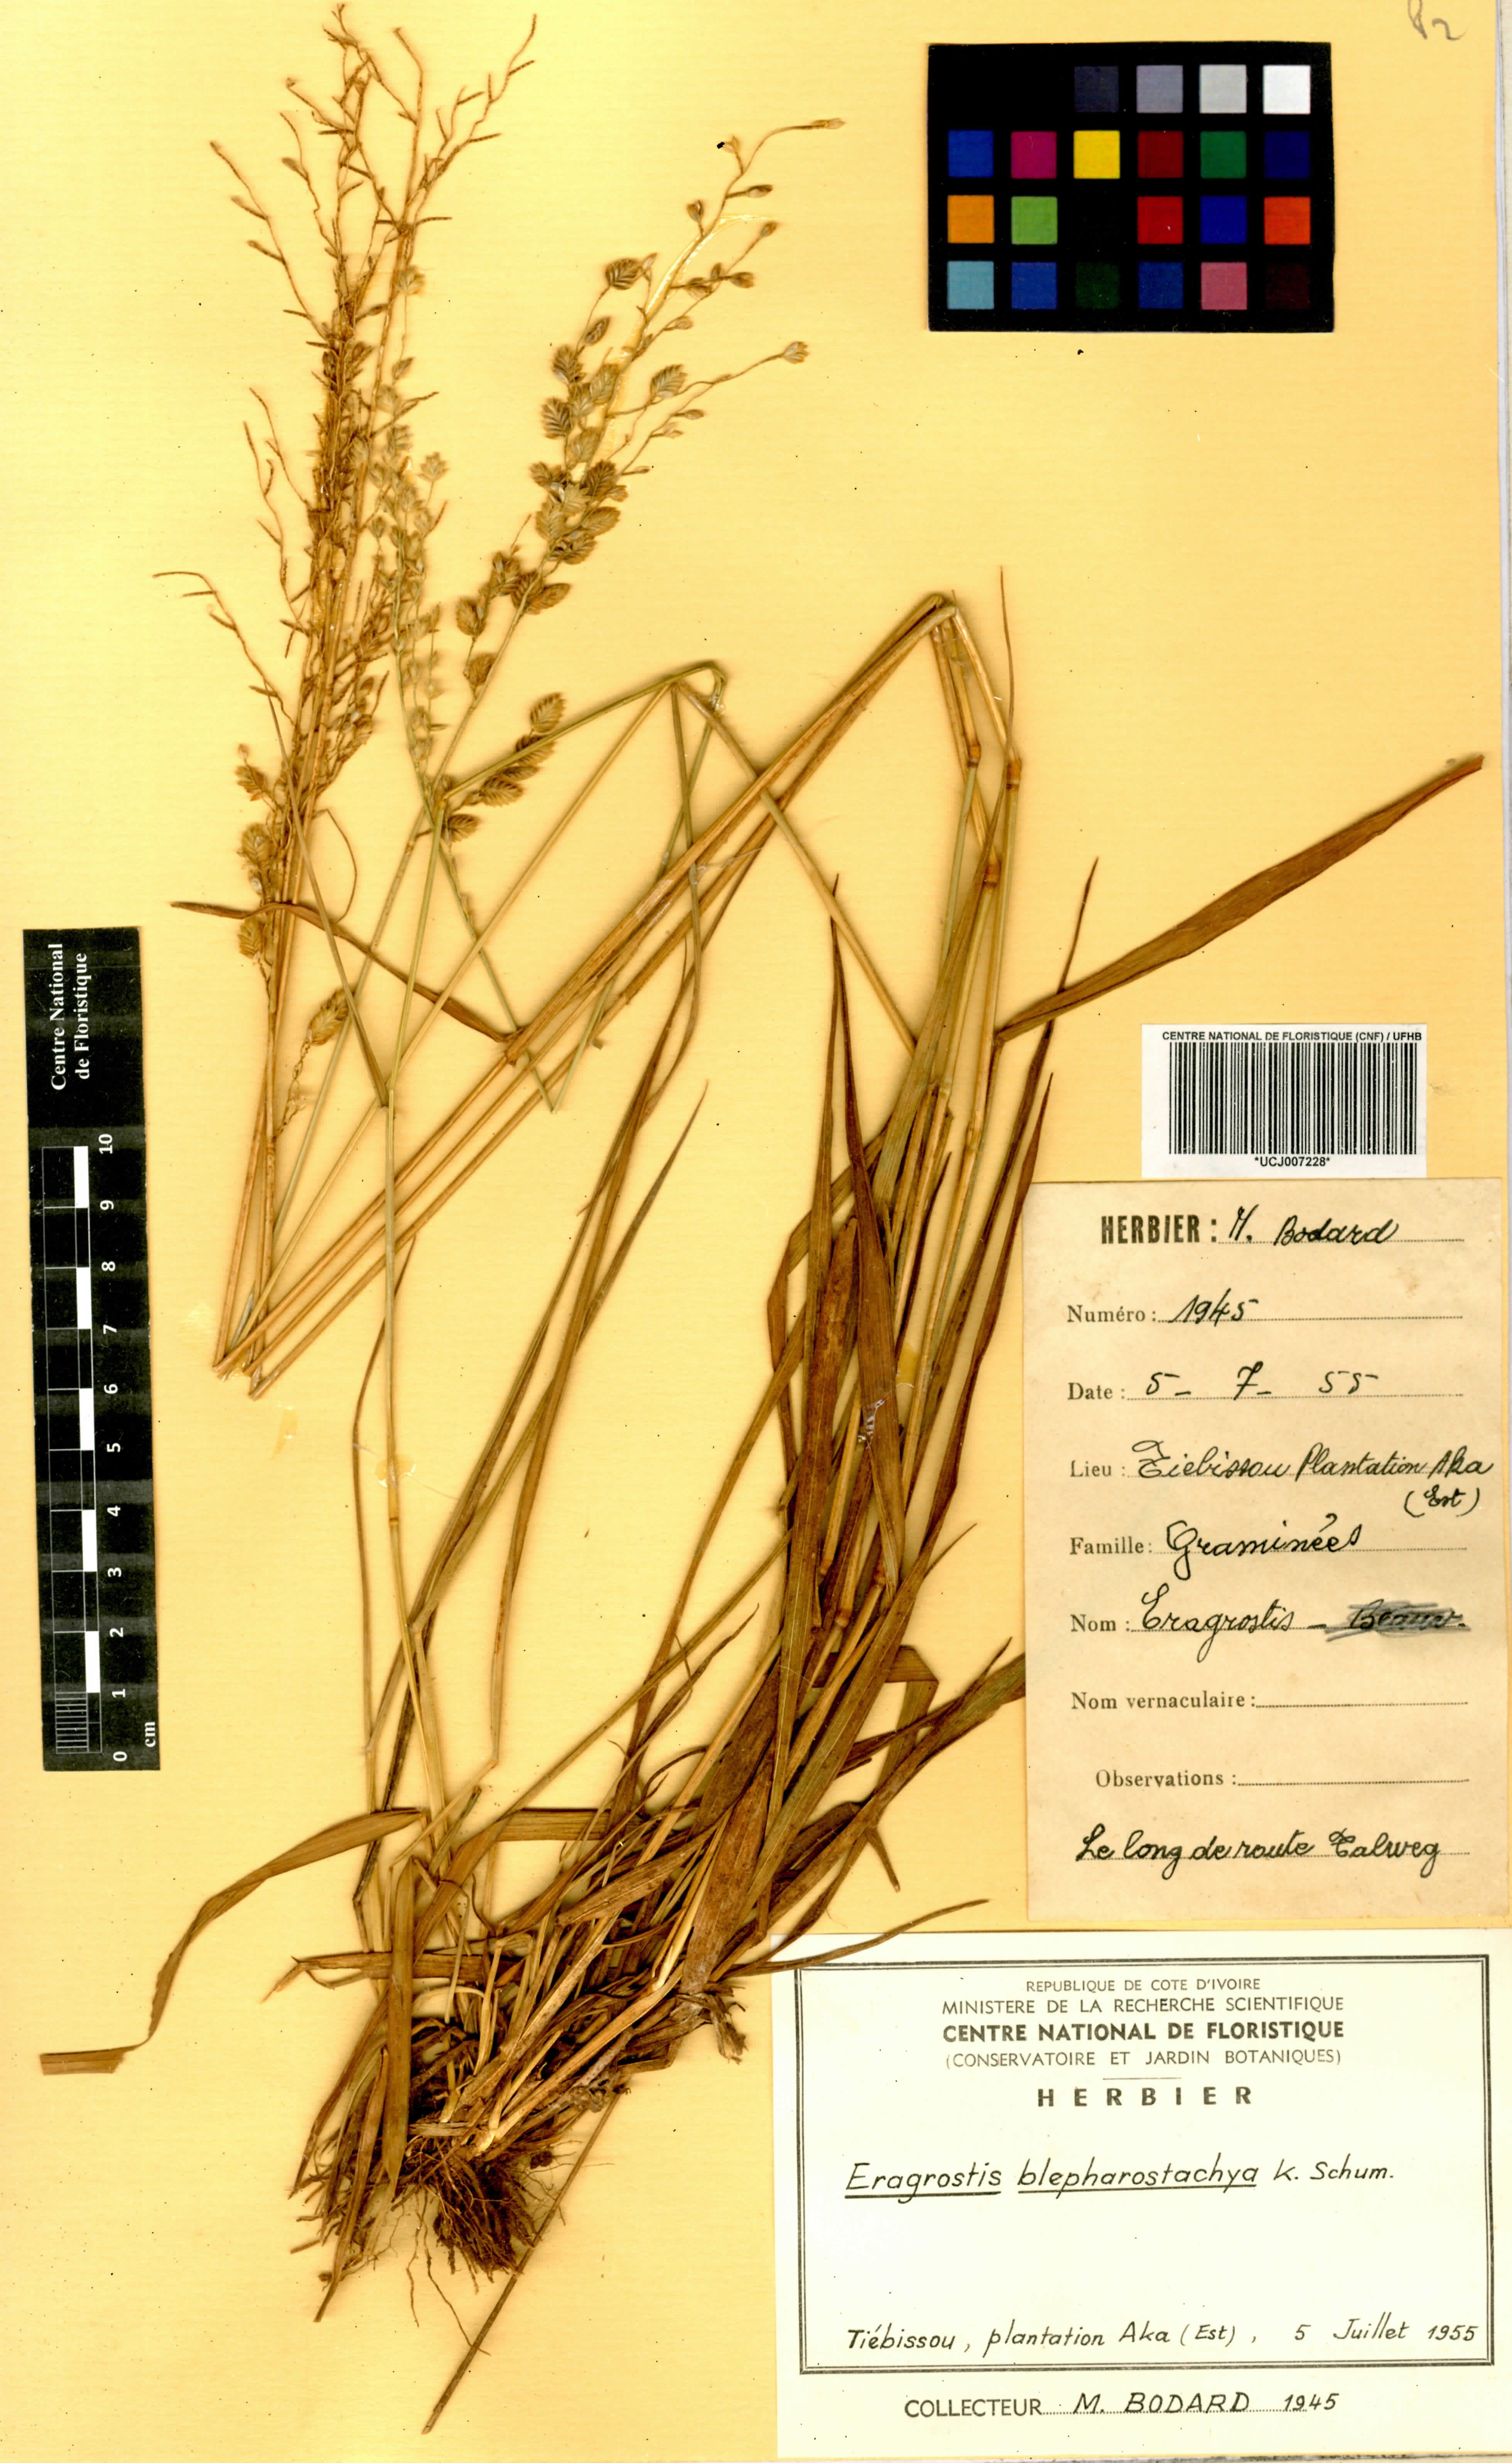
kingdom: Plantae
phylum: Tracheophyta
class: Liliopsida
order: Poales
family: Poaceae
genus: Eragrostis
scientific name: Eragrostis blepharostachya
